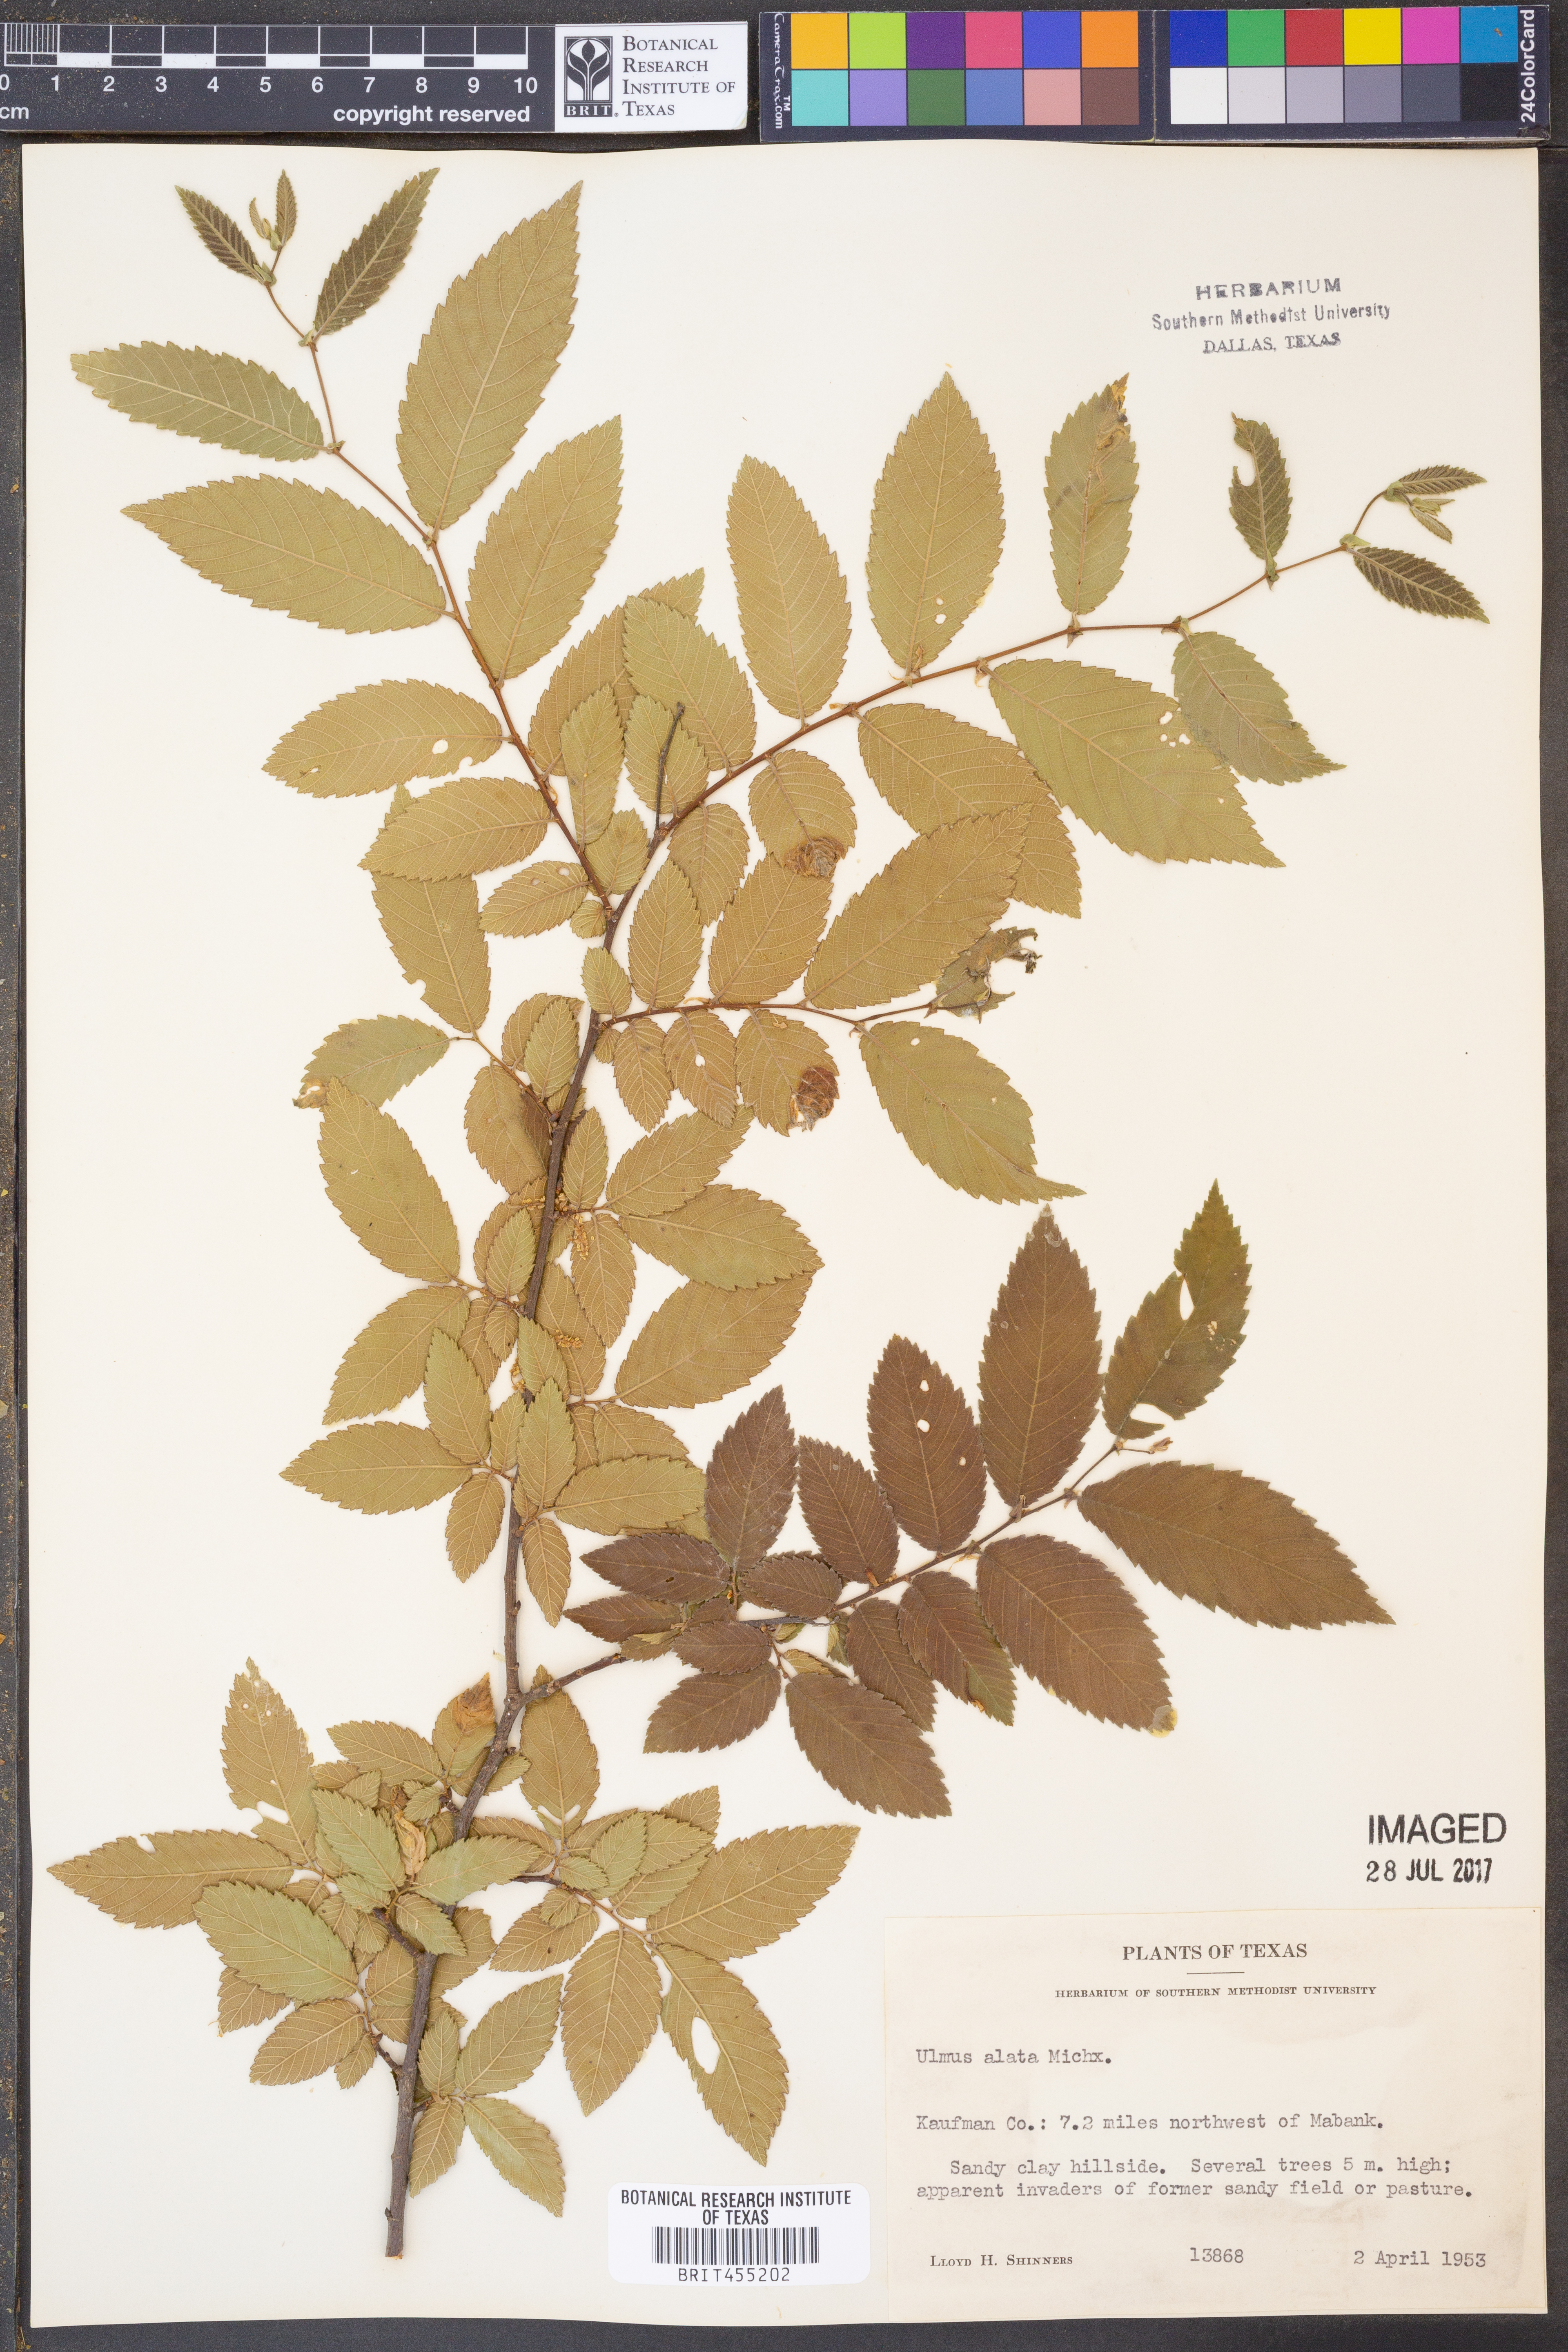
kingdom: Plantae
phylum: Tracheophyta
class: Magnoliopsida
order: Rosales
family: Ulmaceae
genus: Ulmus
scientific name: Ulmus alata
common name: Winged elm
